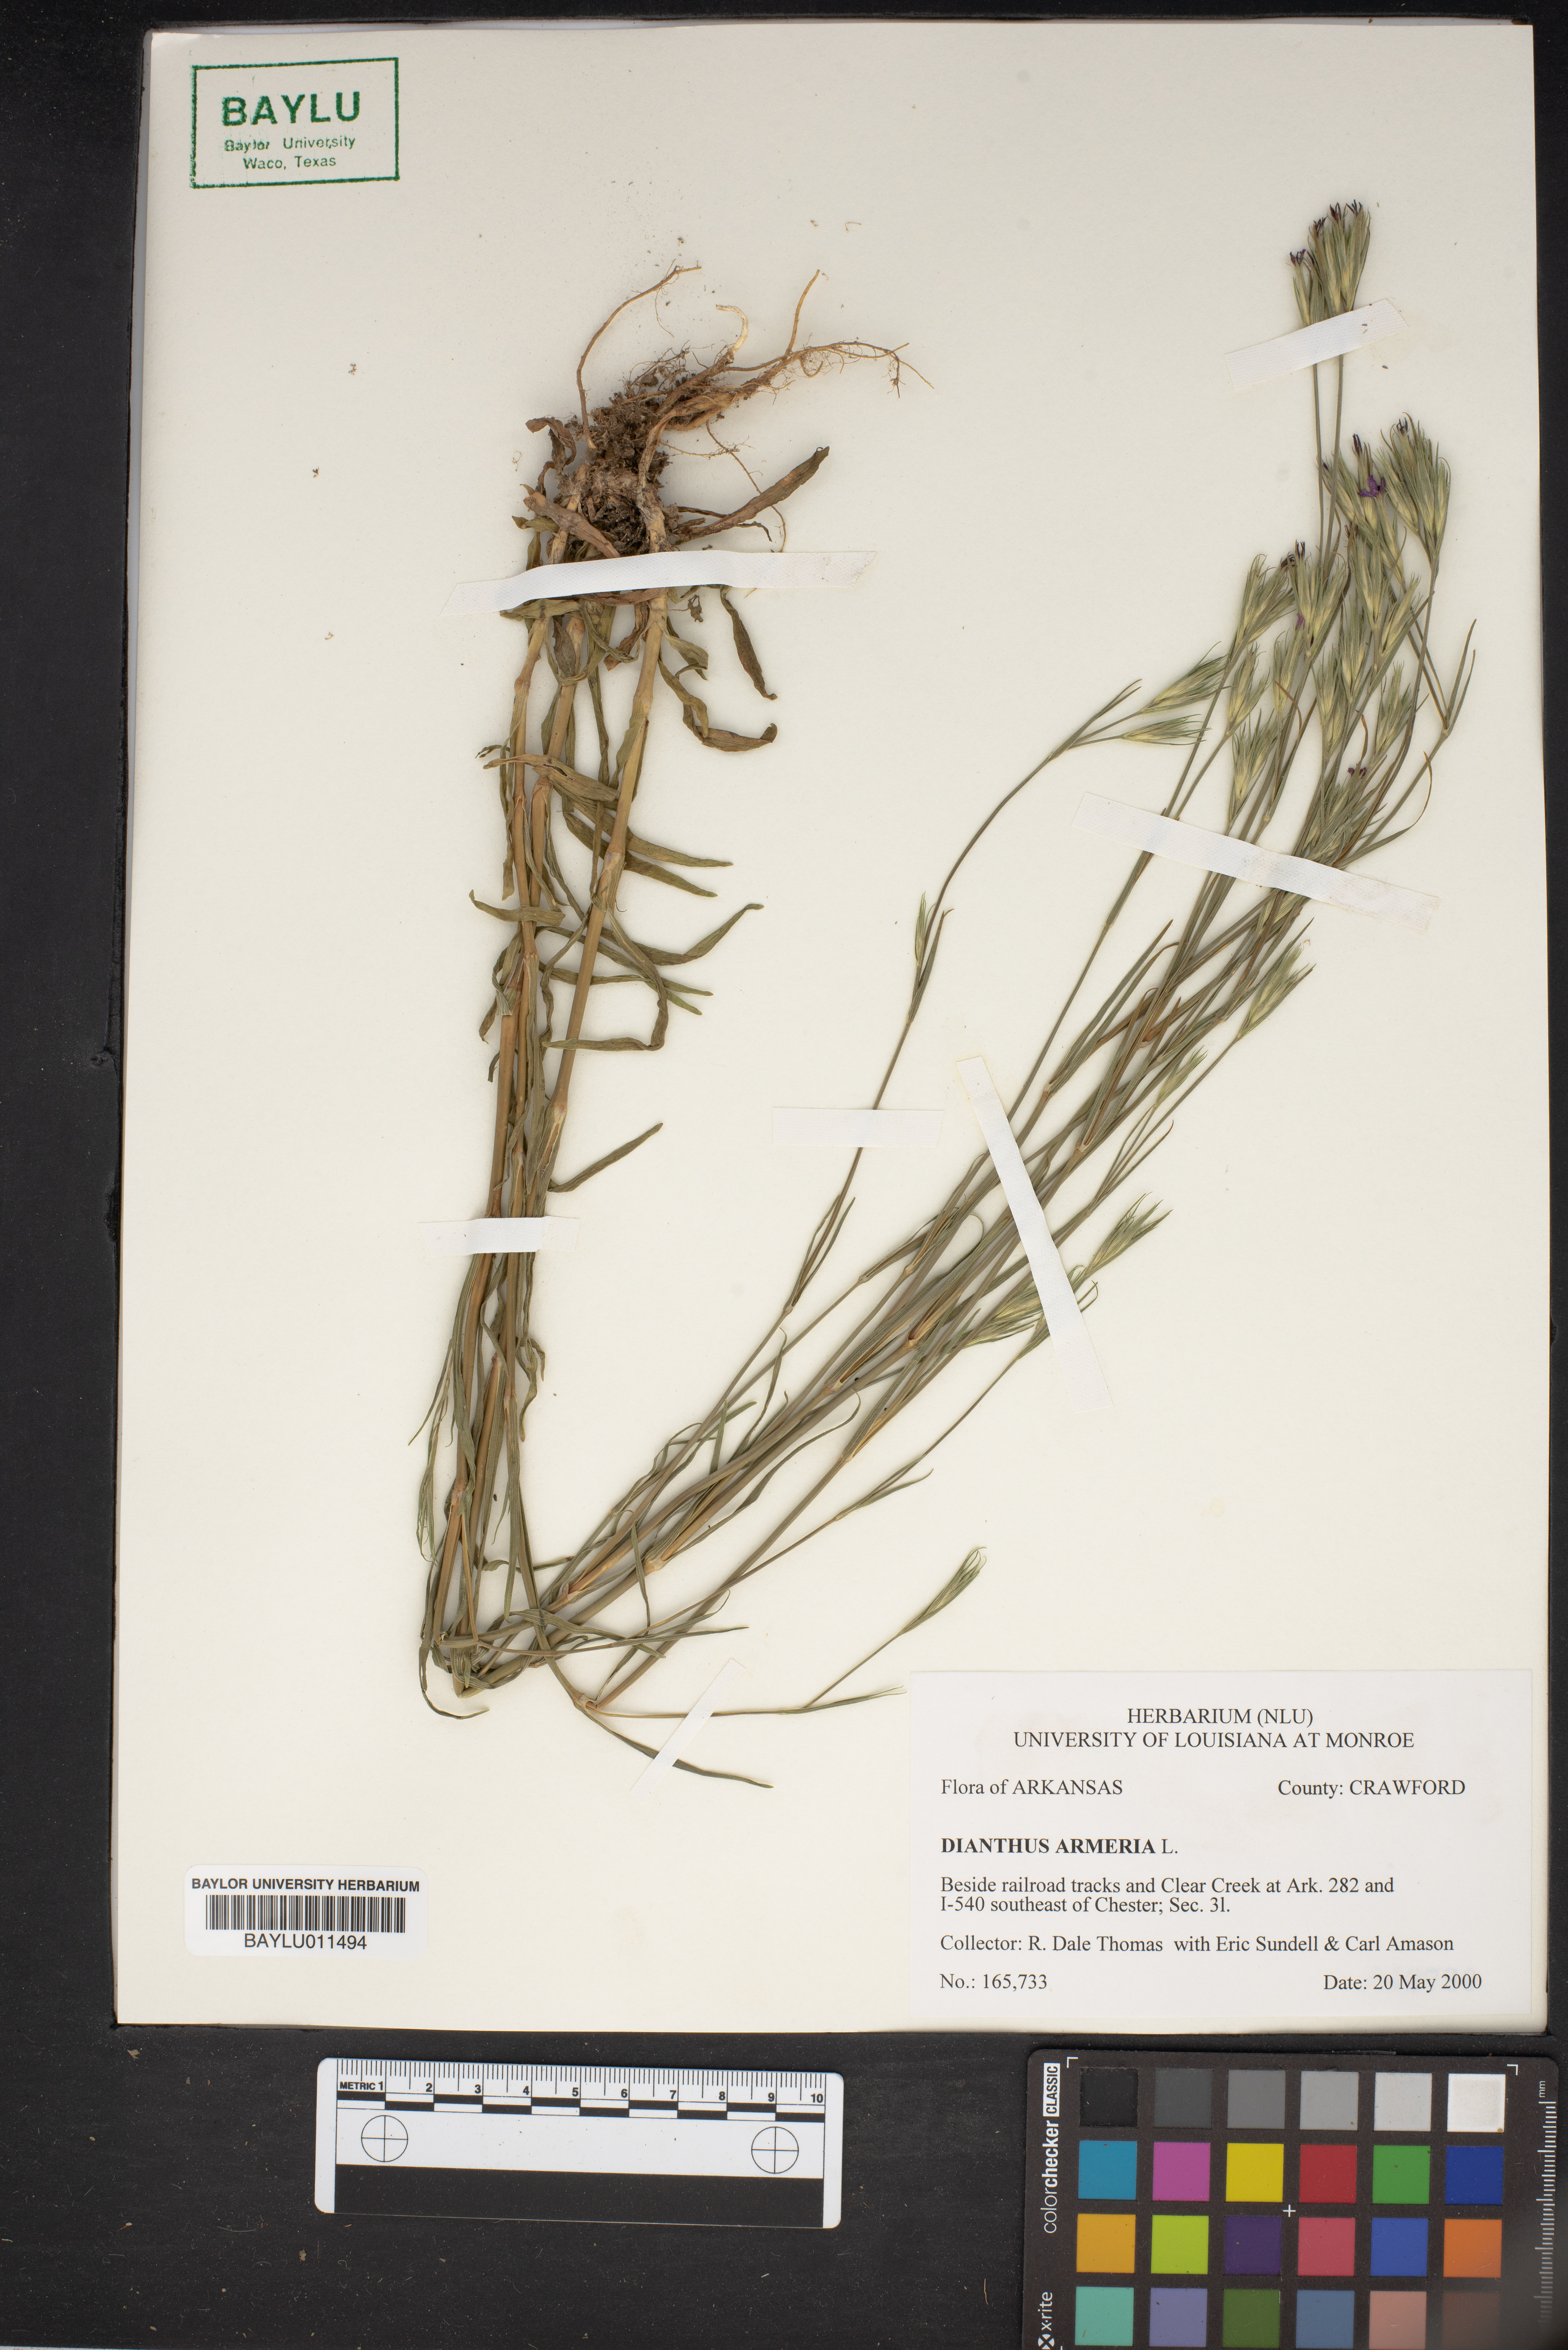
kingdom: Plantae
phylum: Tracheophyta
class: Magnoliopsida
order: Caryophyllales
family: Caryophyllaceae
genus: Dianthus
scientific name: Dianthus armeria
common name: Deptford pink
